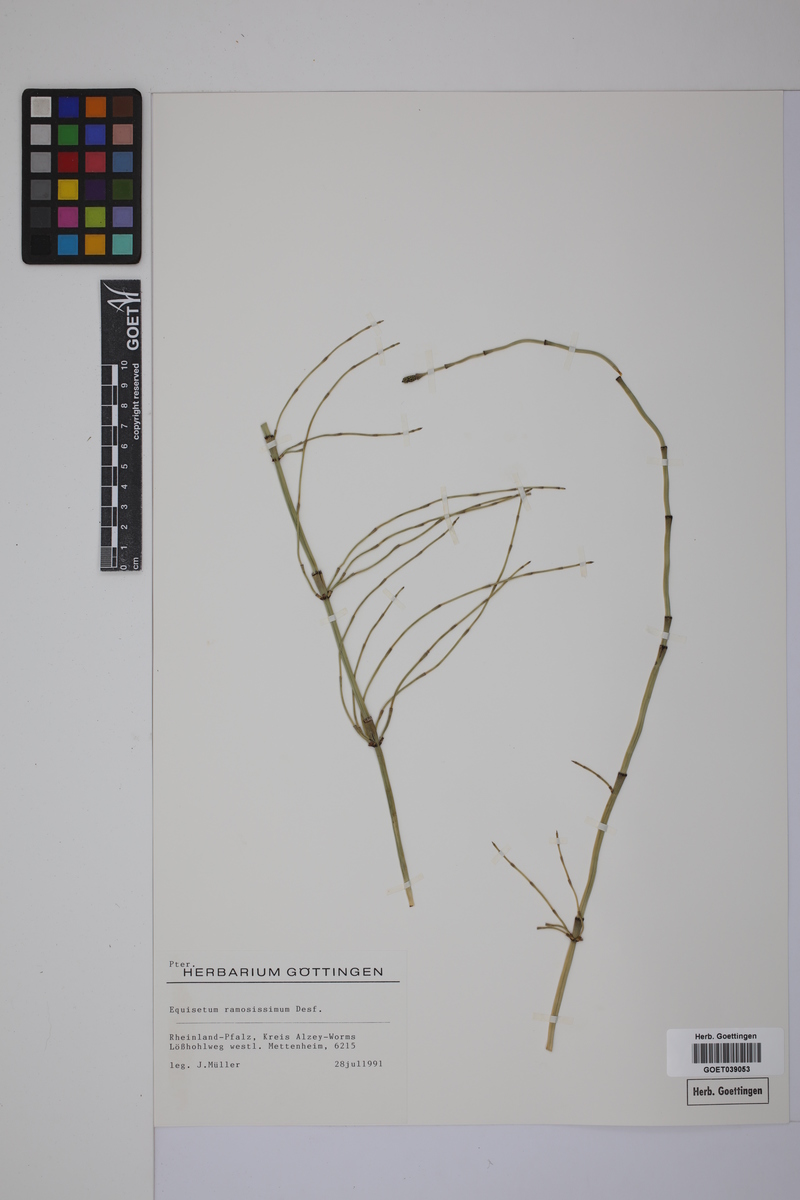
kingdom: Plantae
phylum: Tracheophyta
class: Polypodiopsida
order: Equisetales
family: Equisetaceae
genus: Equisetum
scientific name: Equisetum giganteum
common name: Giant horsetail
